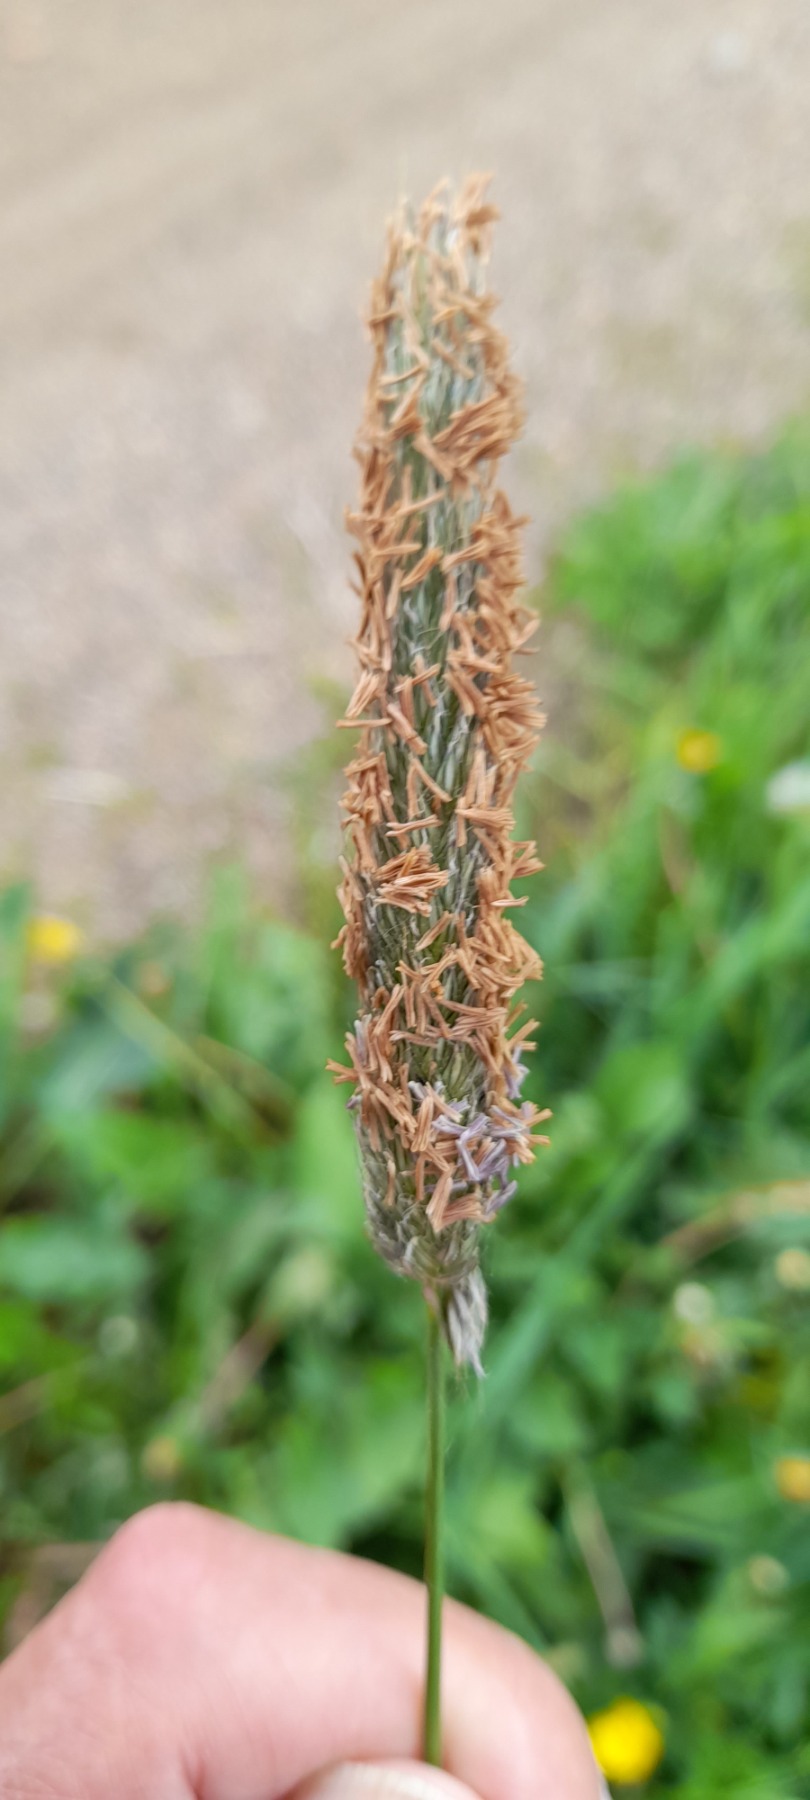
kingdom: Plantae
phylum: Tracheophyta
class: Liliopsida
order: Poales
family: Poaceae
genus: Alopecurus
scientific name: Alopecurus pratensis
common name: Eng-rævehale
